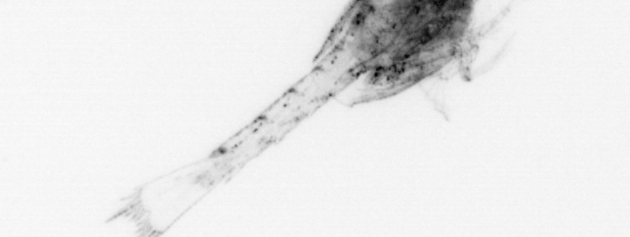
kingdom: Animalia
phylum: Arthropoda
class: Malacostraca
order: Decapoda
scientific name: Decapoda
